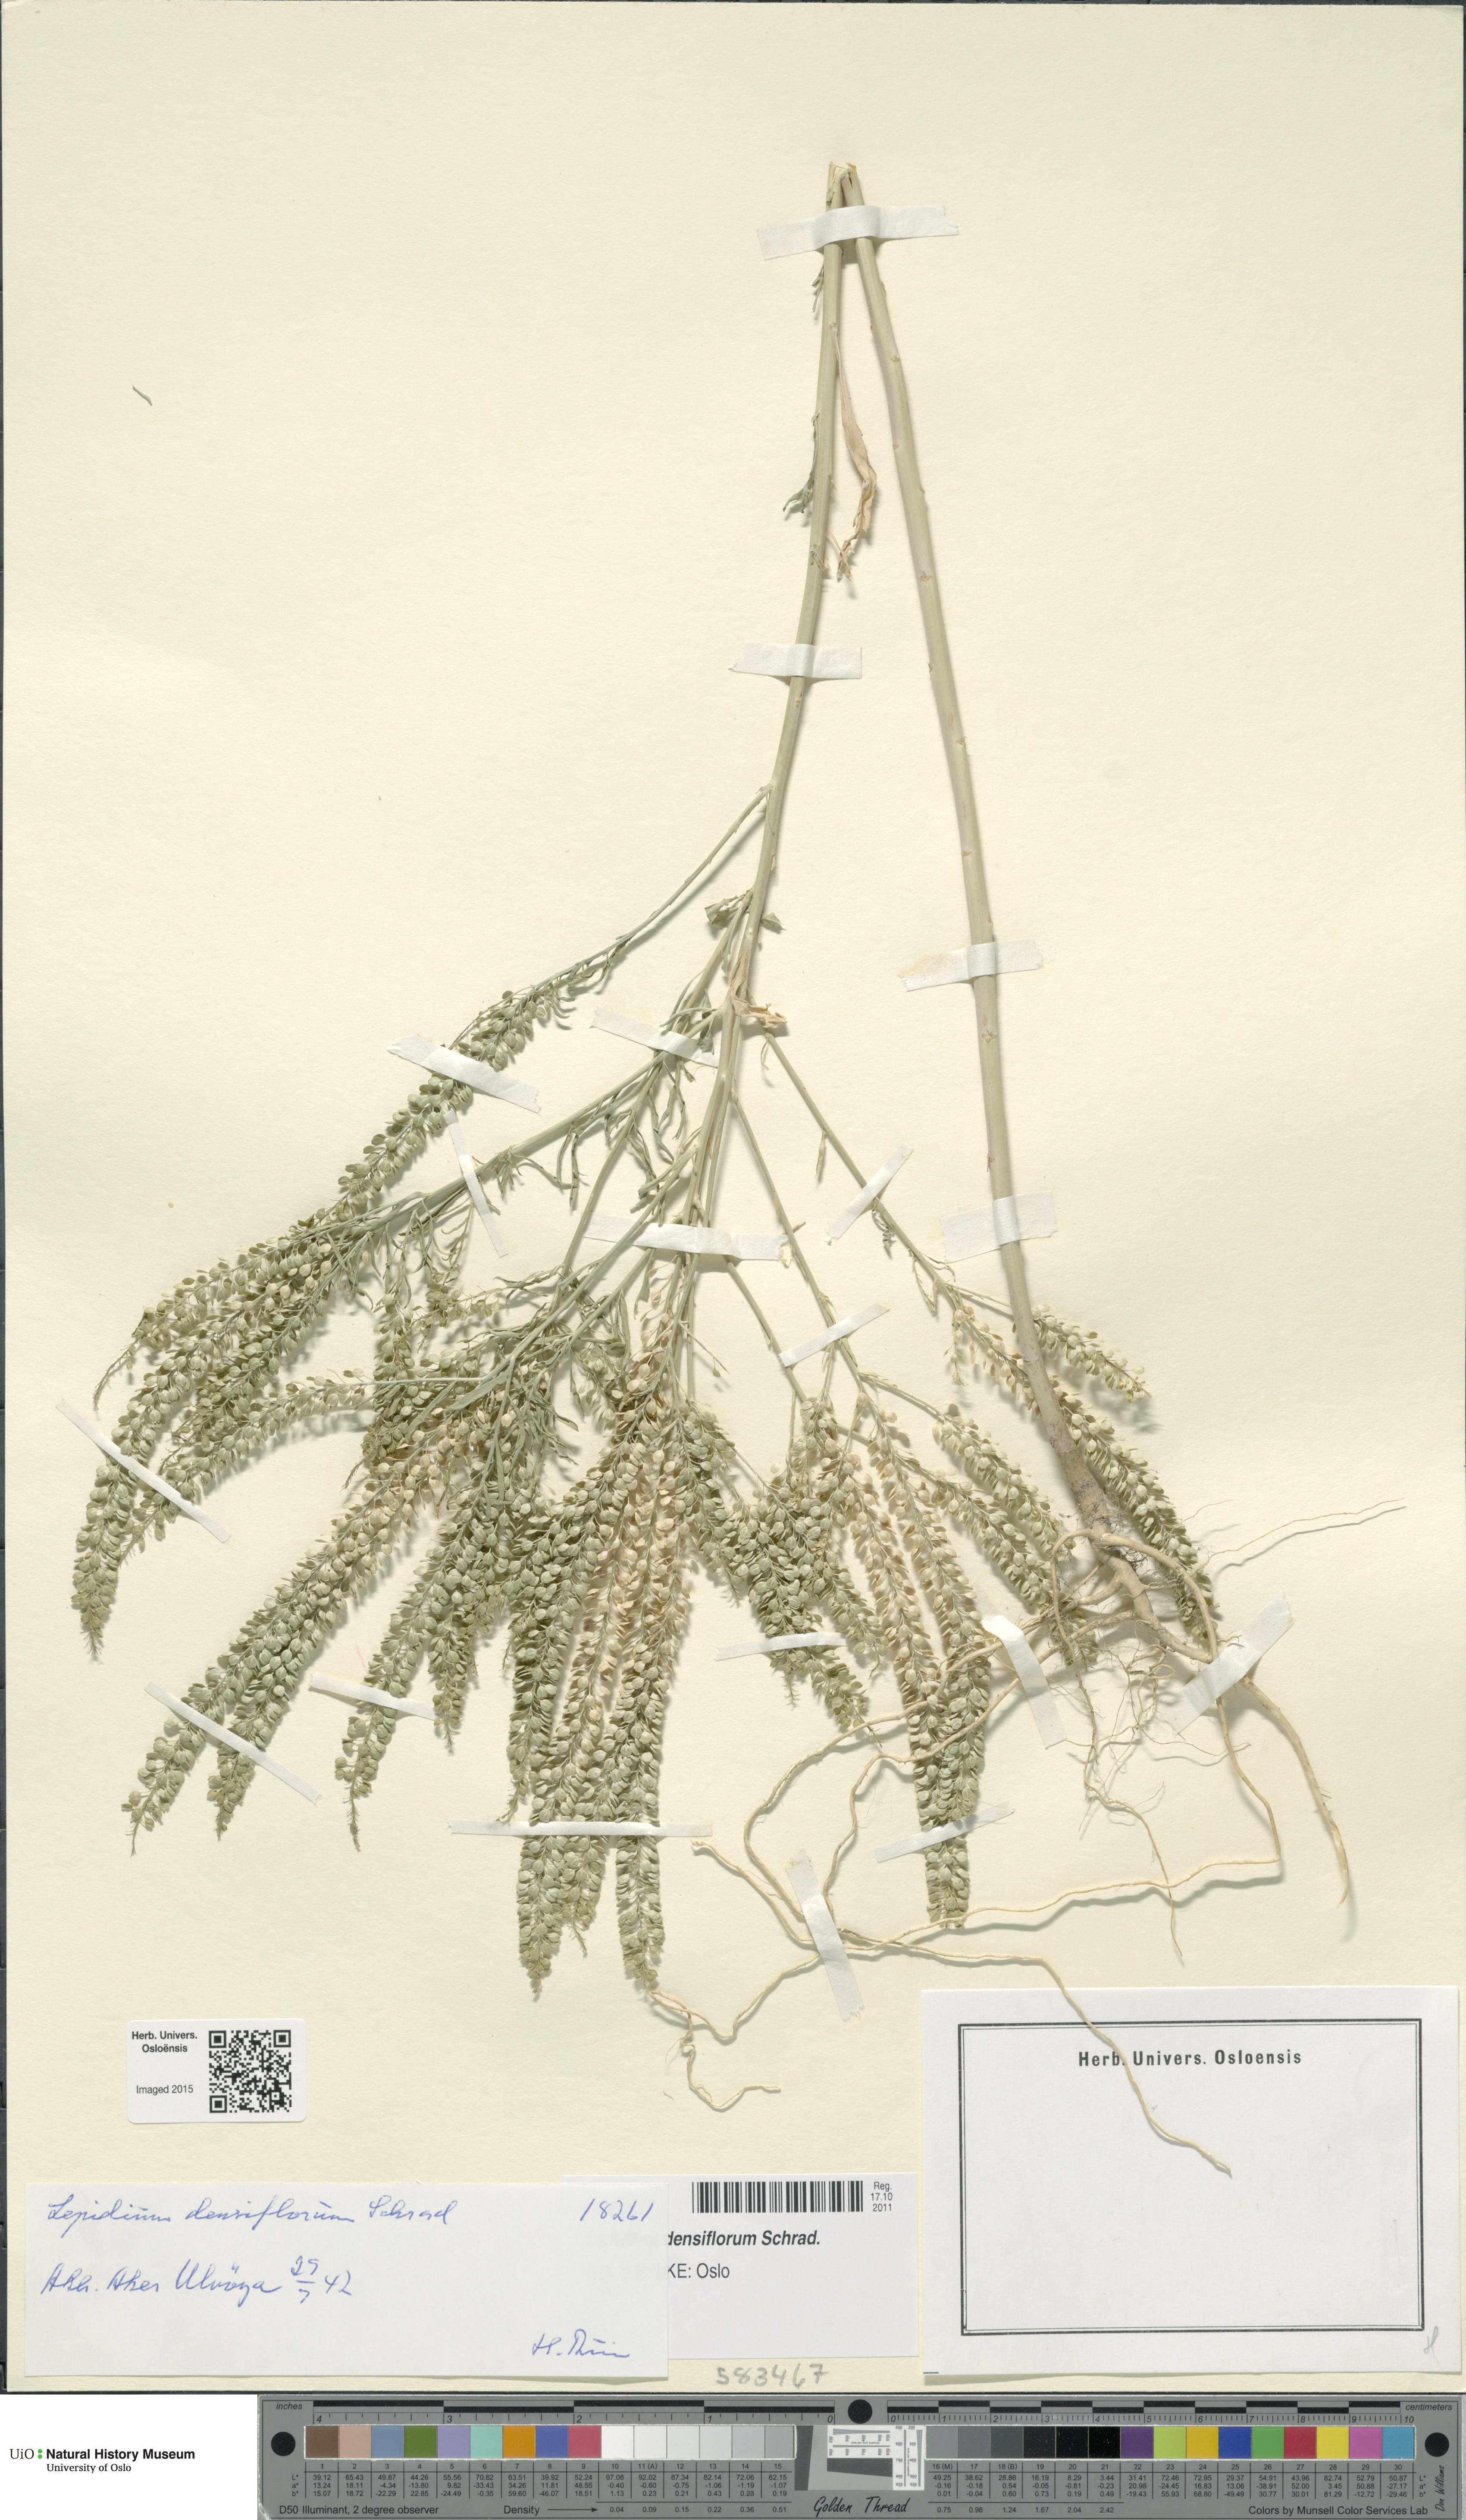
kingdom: Plantae
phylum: Tracheophyta
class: Magnoliopsida
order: Brassicales
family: Brassicaceae
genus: Lepidium
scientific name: Lepidium densiflorum
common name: Miner's pepperwort
